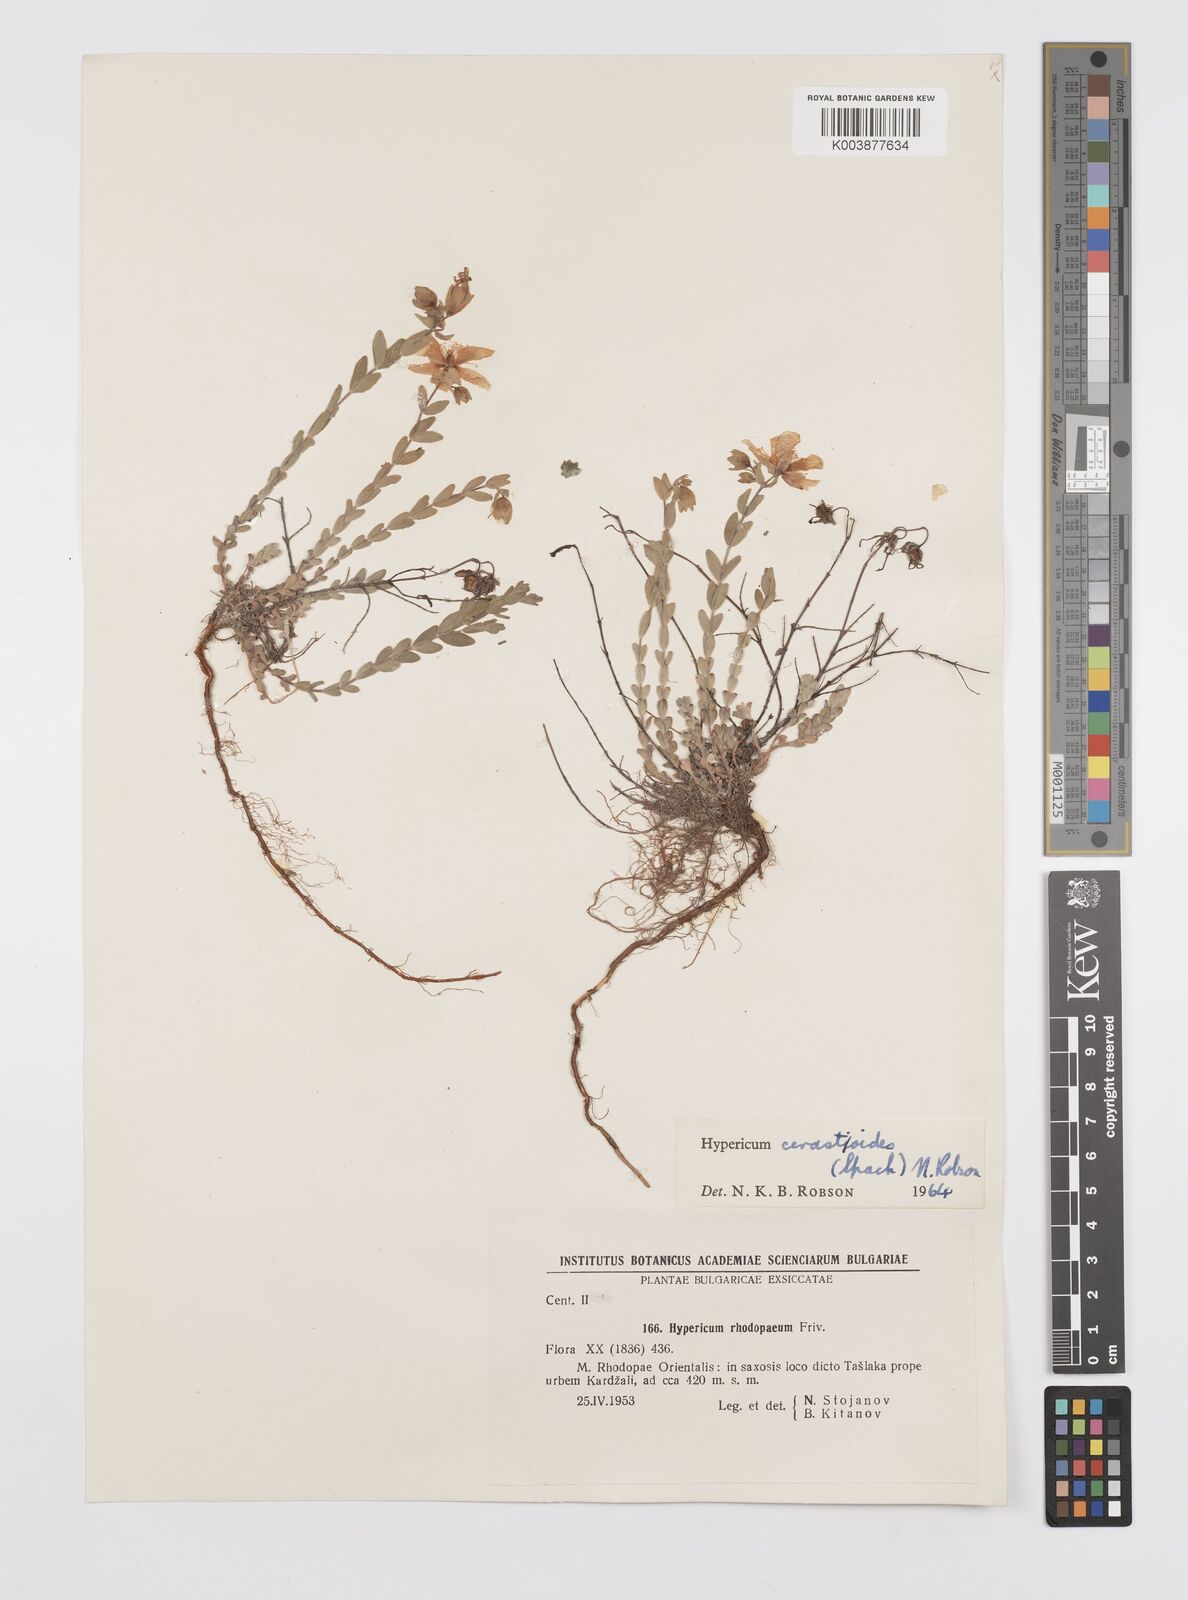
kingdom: Plantae
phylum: Tracheophyta
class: Magnoliopsida
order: Malpighiales
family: Hypericaceae
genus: Hypericum
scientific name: Hypericum cerastoides
